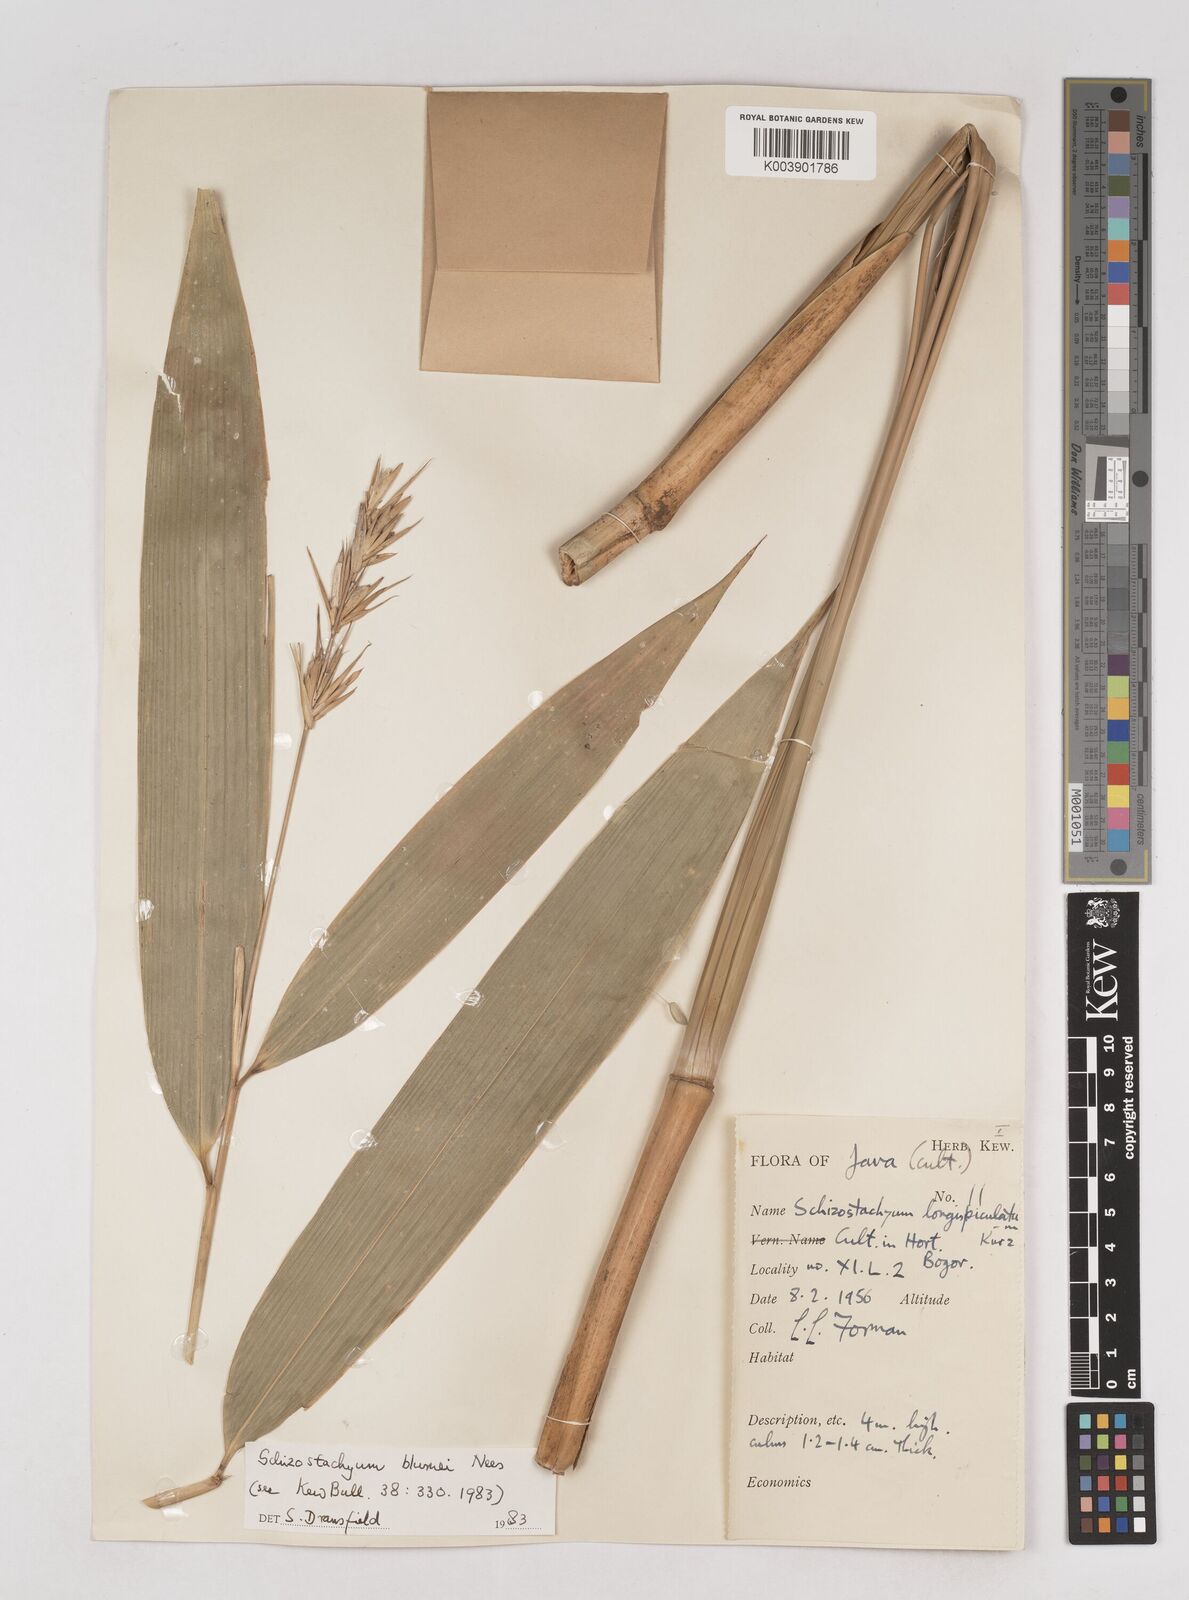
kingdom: Plantae
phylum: Tracheophyta
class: Liliopsida
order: Poales
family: Poaceae
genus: Schizostachyum
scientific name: Schizostachyum blumei
